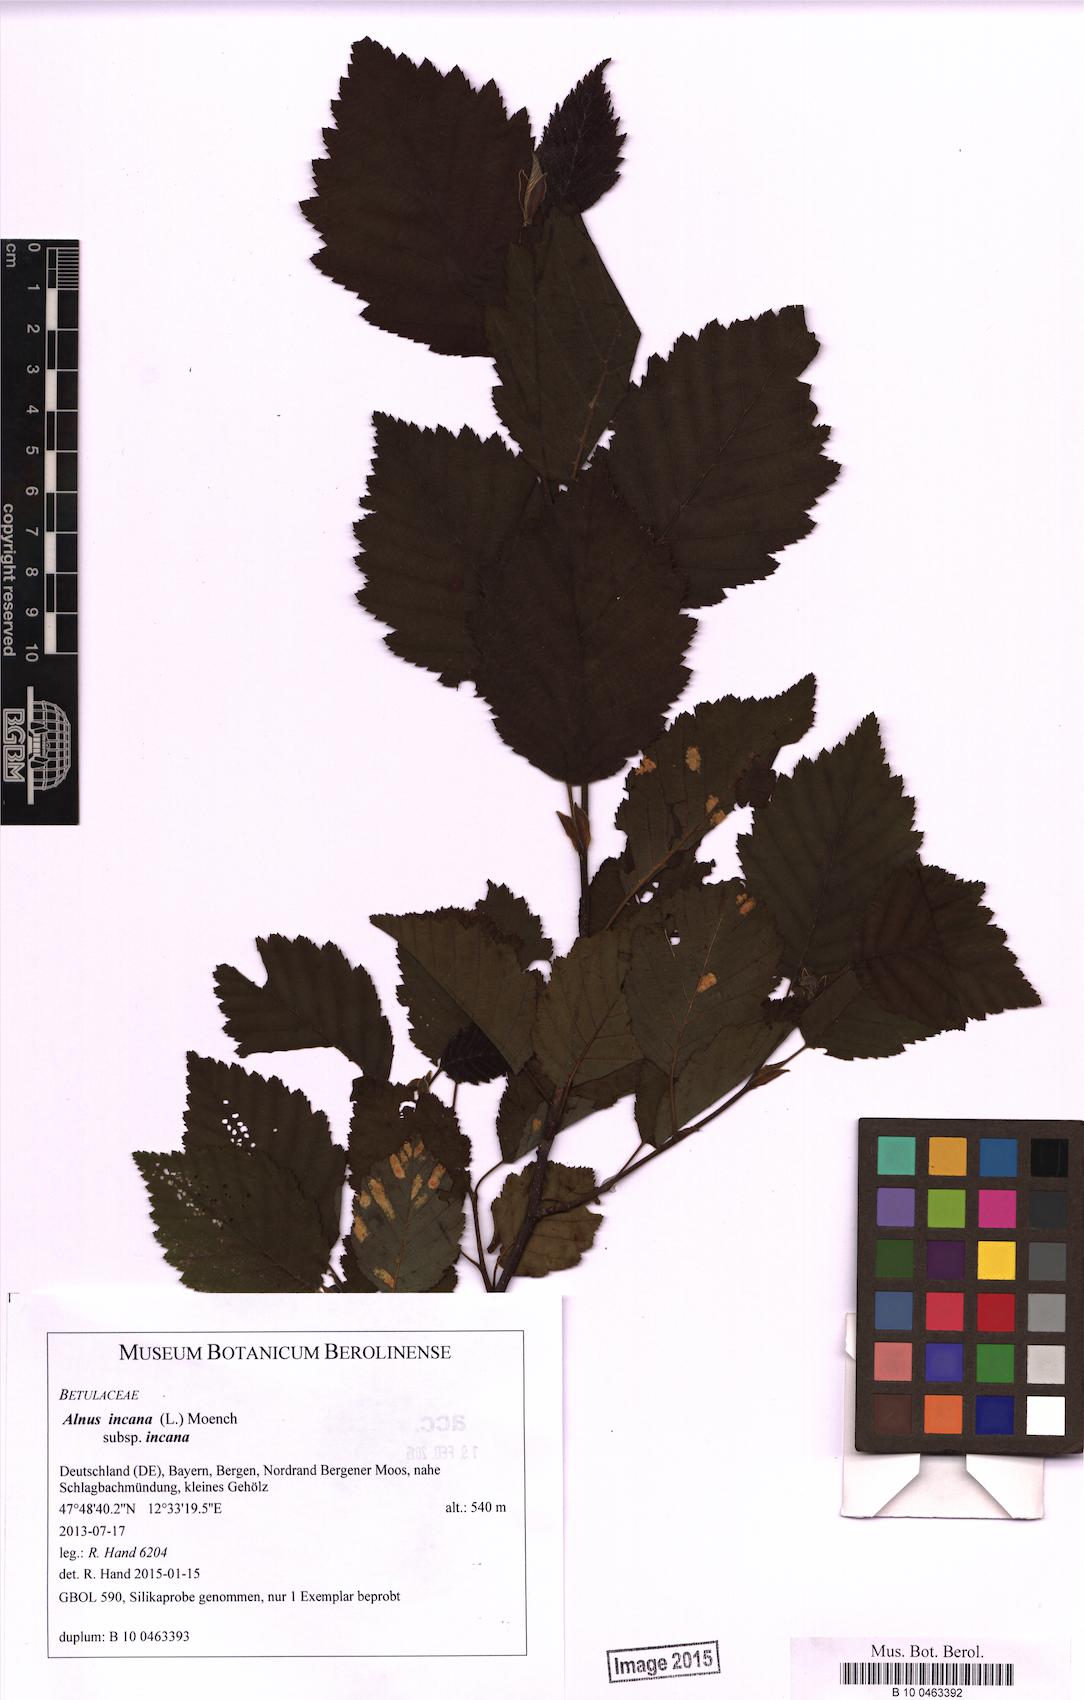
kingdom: Plantae
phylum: Tracheophyta
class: Magnoliopsida
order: Fagales
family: Betulaceae
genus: Alnus
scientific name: Alnus incana
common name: Grey alder
